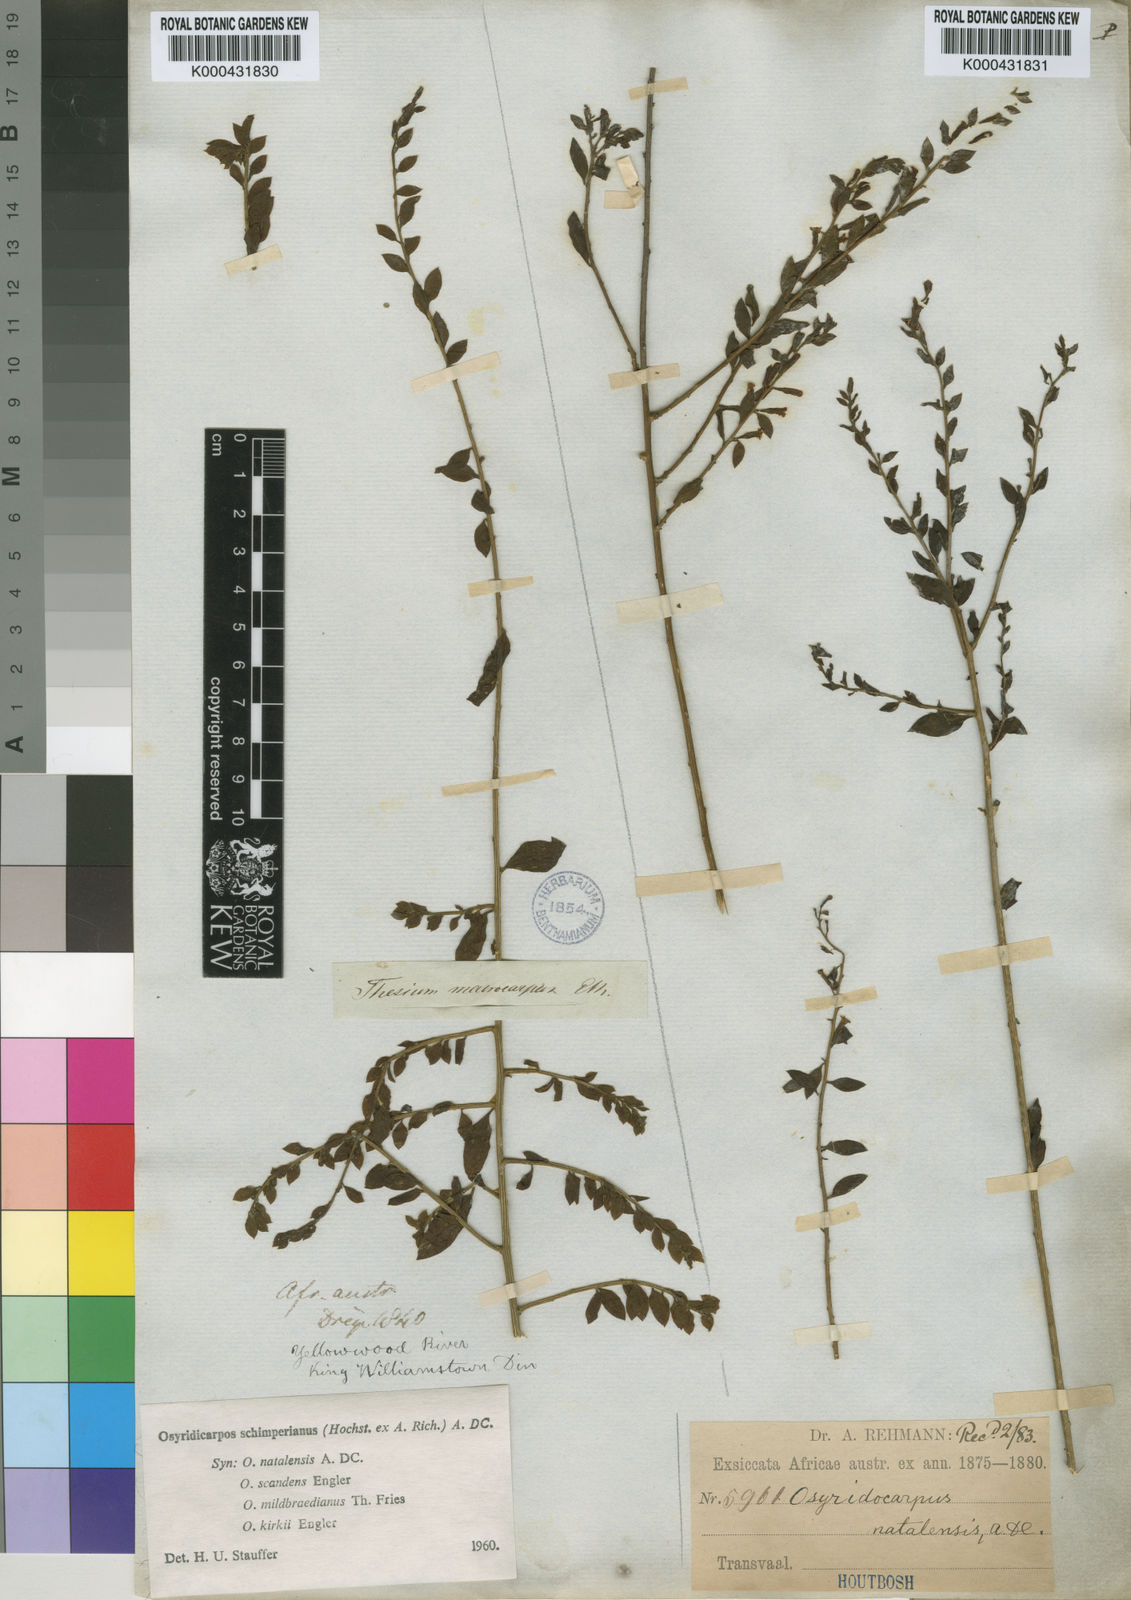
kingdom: Plantae
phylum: Tracheophyta
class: Magnoliopsida
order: Santalales
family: Thesiaceae
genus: Osyridicarpos
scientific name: Osyridicarpos schimperianus
